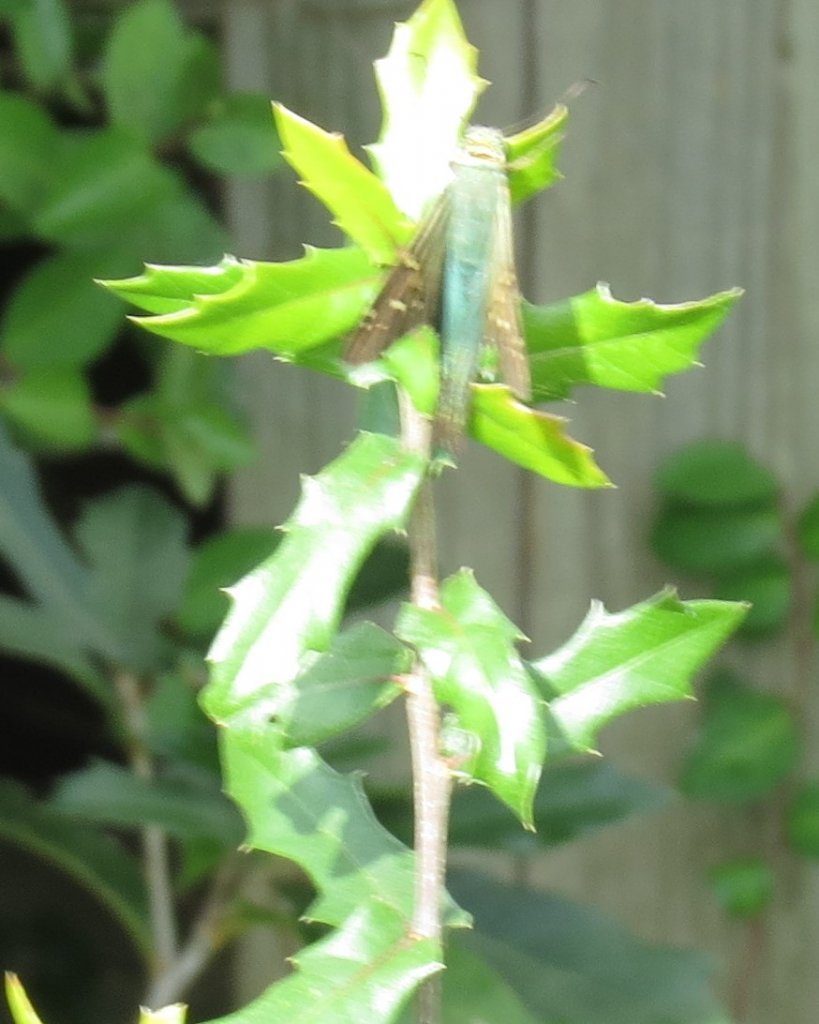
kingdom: Animalia
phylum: Arthropoda
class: Insecta
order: Lepidoptera
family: Hesperiidae
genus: Urbanus
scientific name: Urbanus proteus
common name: Long-tailed Skipper
